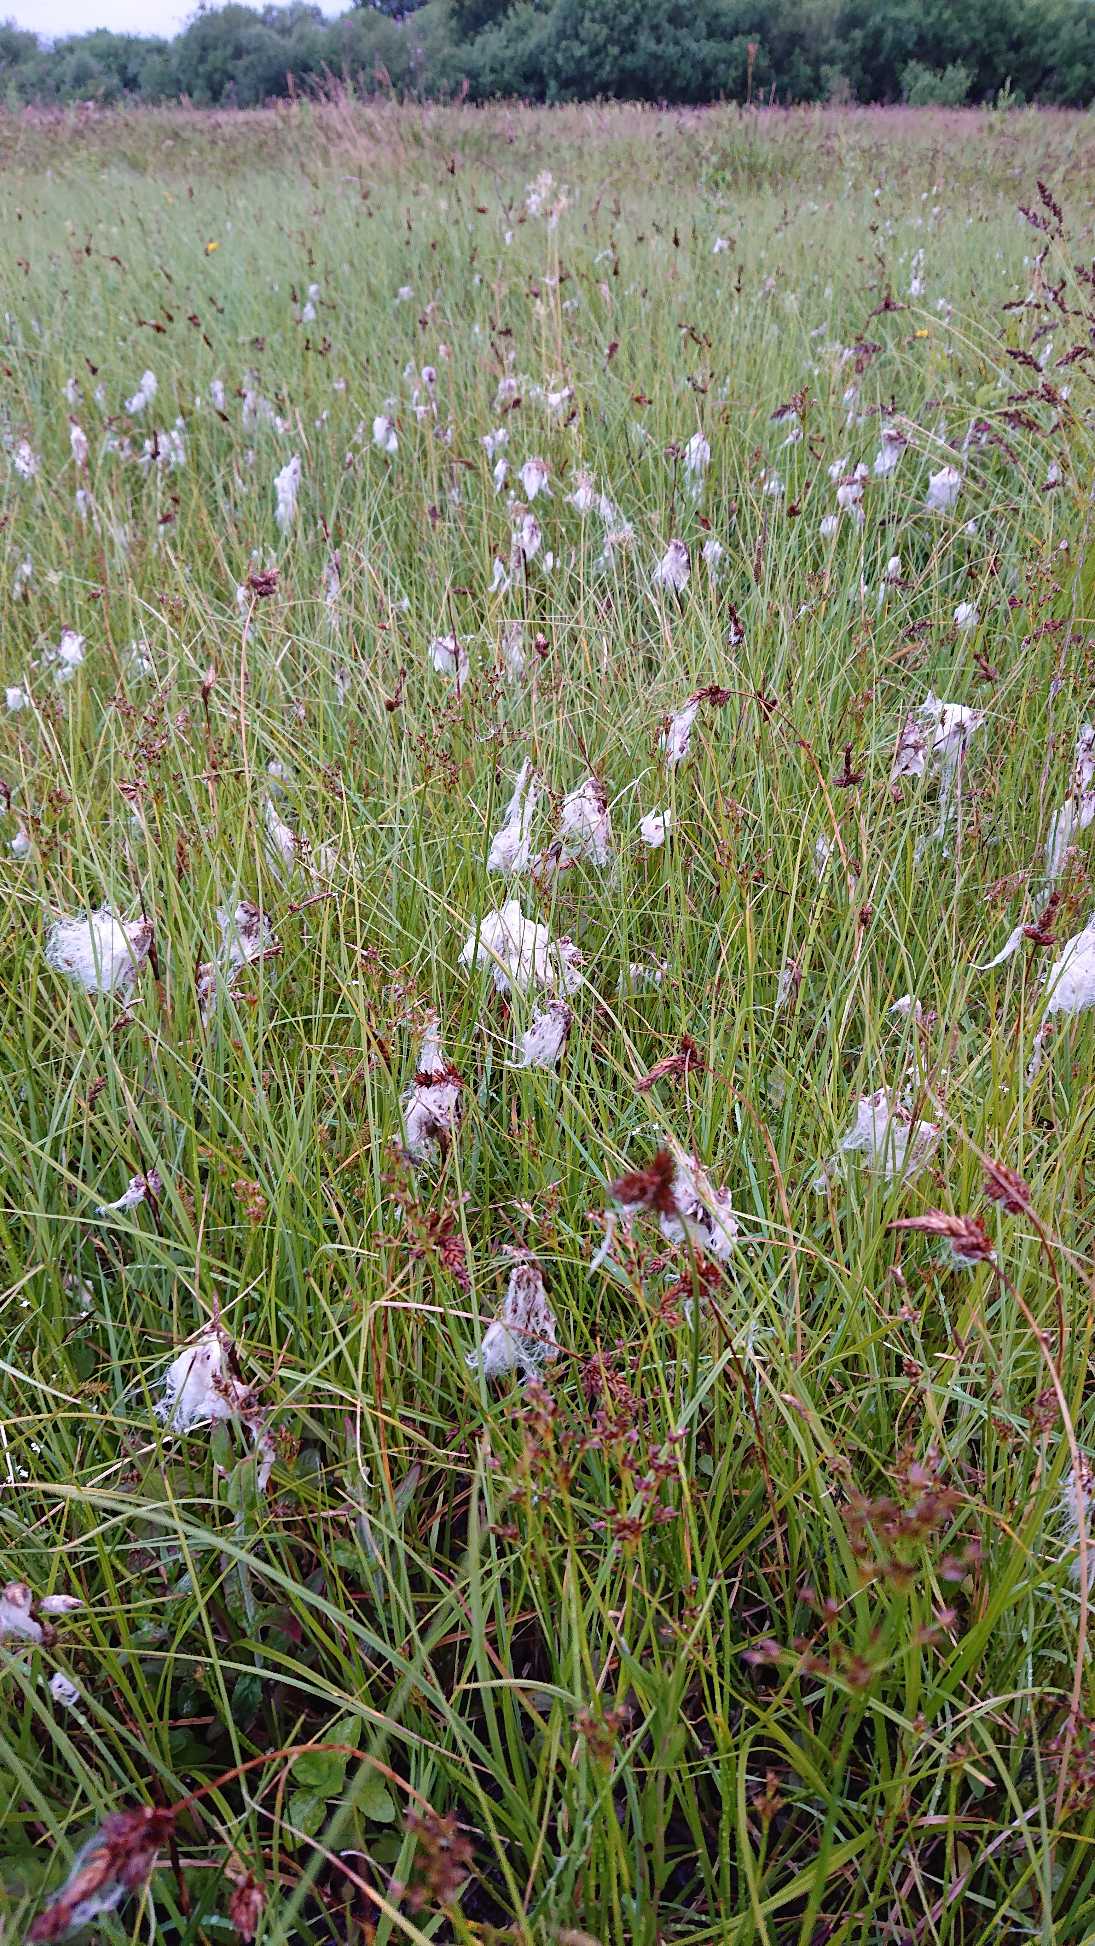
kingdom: Plantae
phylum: Tracheophyta
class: Liliopsida
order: Poales
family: Cyperaceae
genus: Eriophorum
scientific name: Eriophorum angustifolium
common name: Smalbladet kæruld
